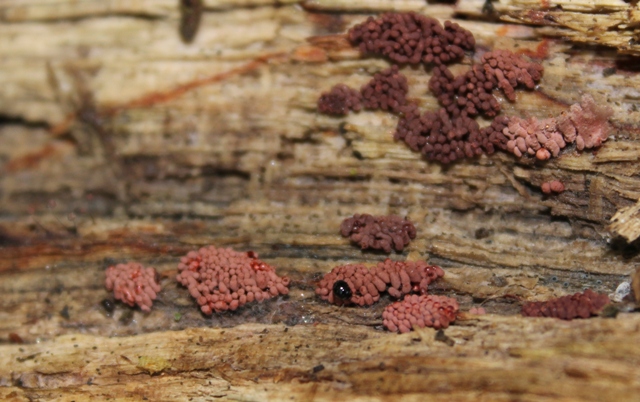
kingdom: Protozoa
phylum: Mycetozoa
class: Myxomycetes
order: Trichiales
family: Arcyriaceae
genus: Arcyria
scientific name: Arcyria incarnata
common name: rosa skålsvøb
